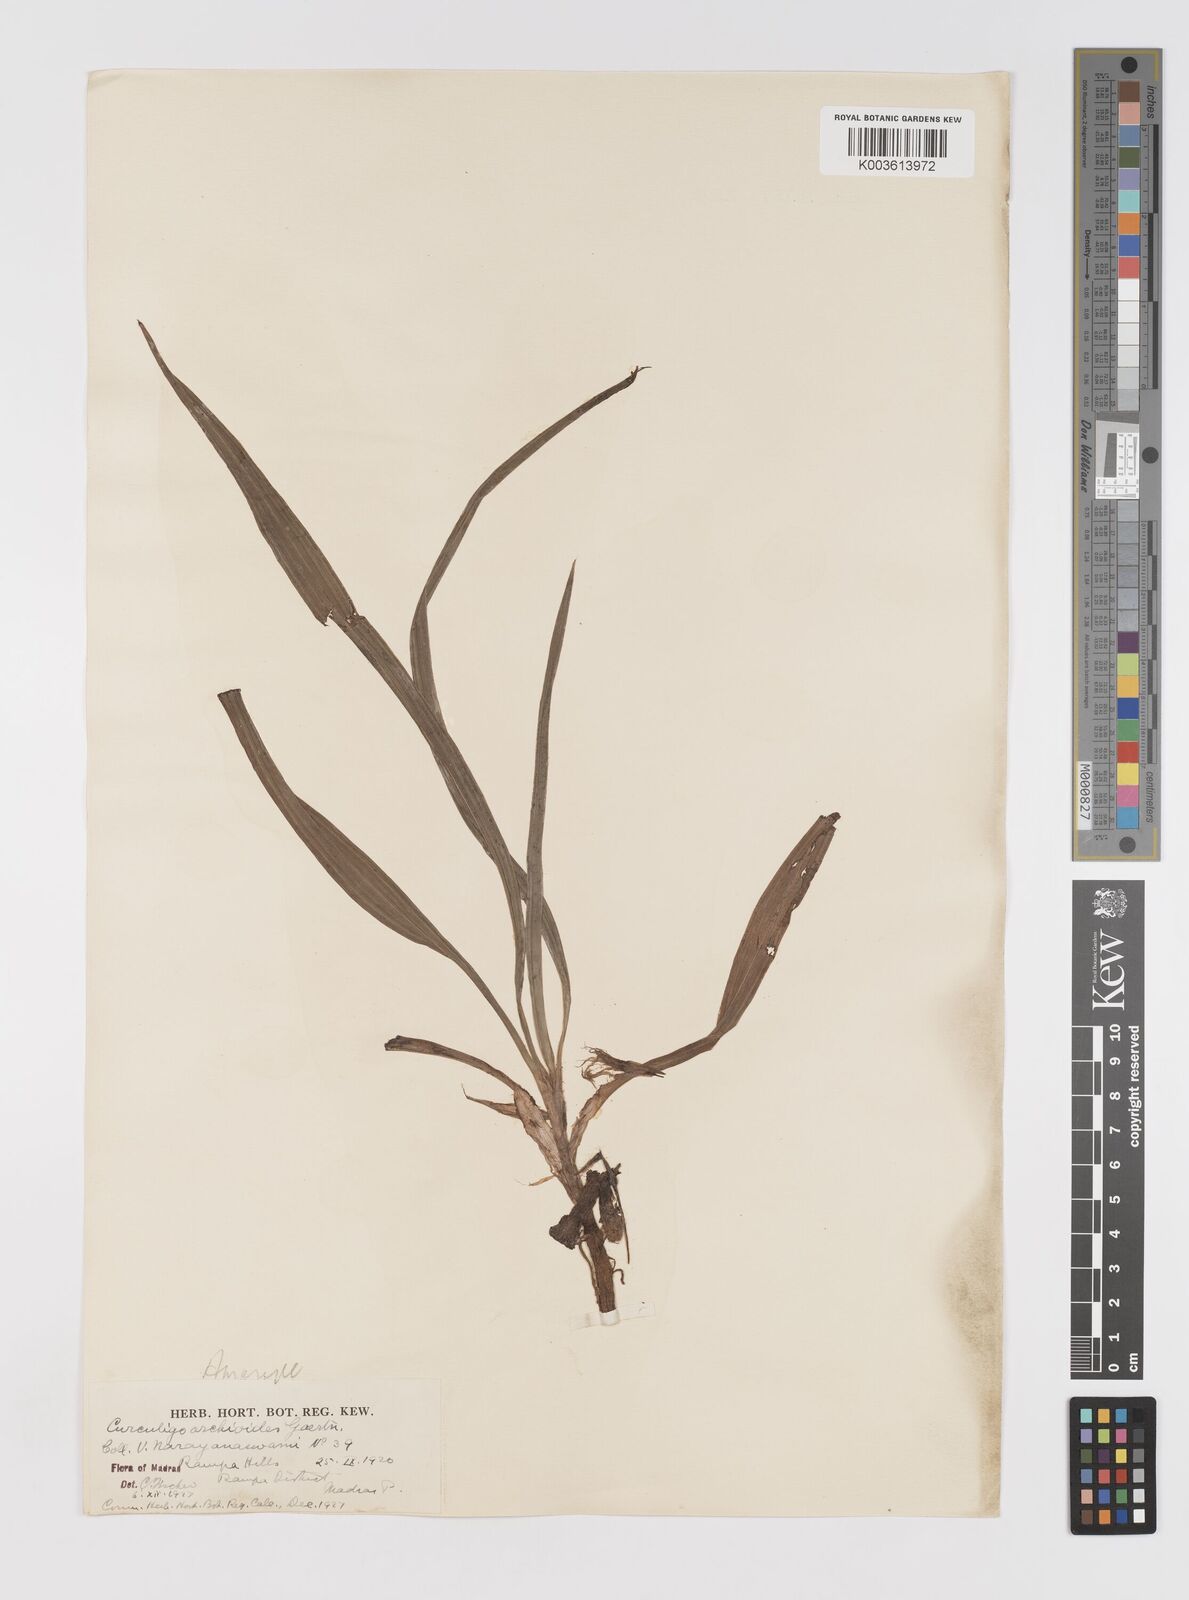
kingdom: Plantae
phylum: Tracheophyta
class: Liliopsida
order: Asparagales
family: Hypoxidaceae
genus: Curculigo
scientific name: Curculigo orchioides
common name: Golden eye-grass
